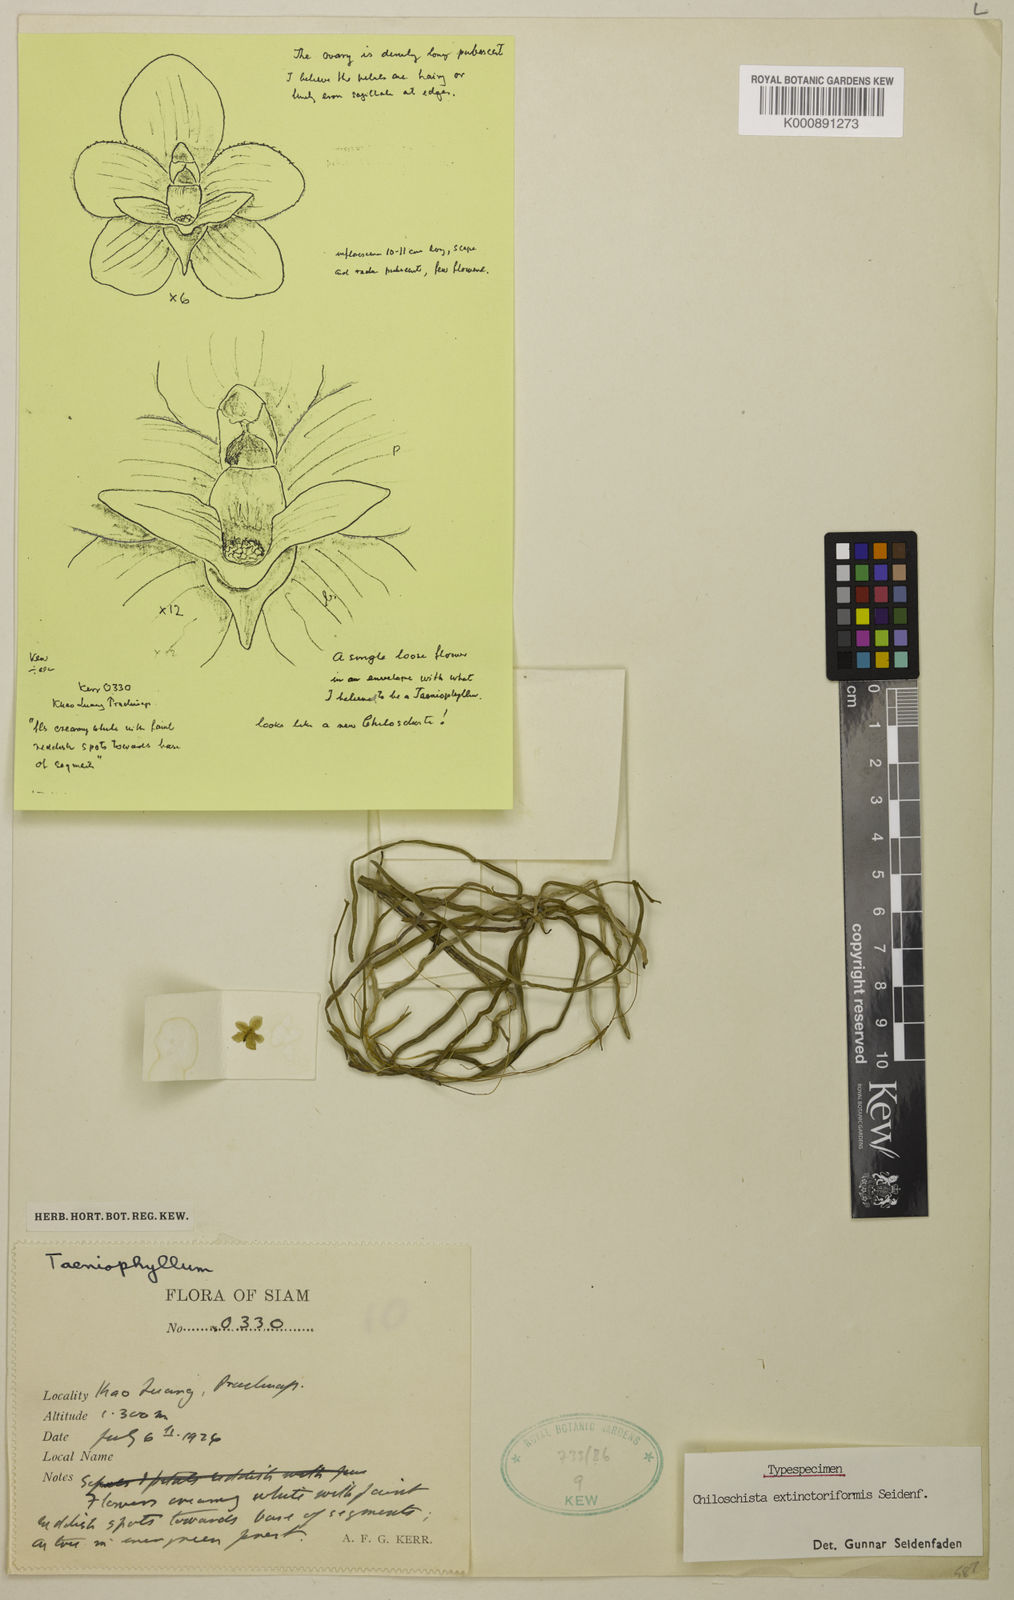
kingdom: Plantae
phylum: Tracheophyta
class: Liliopsida
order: Asparagales
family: Orchidaceae
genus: Chiloschista
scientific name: Chiloschista extinctoriformis
